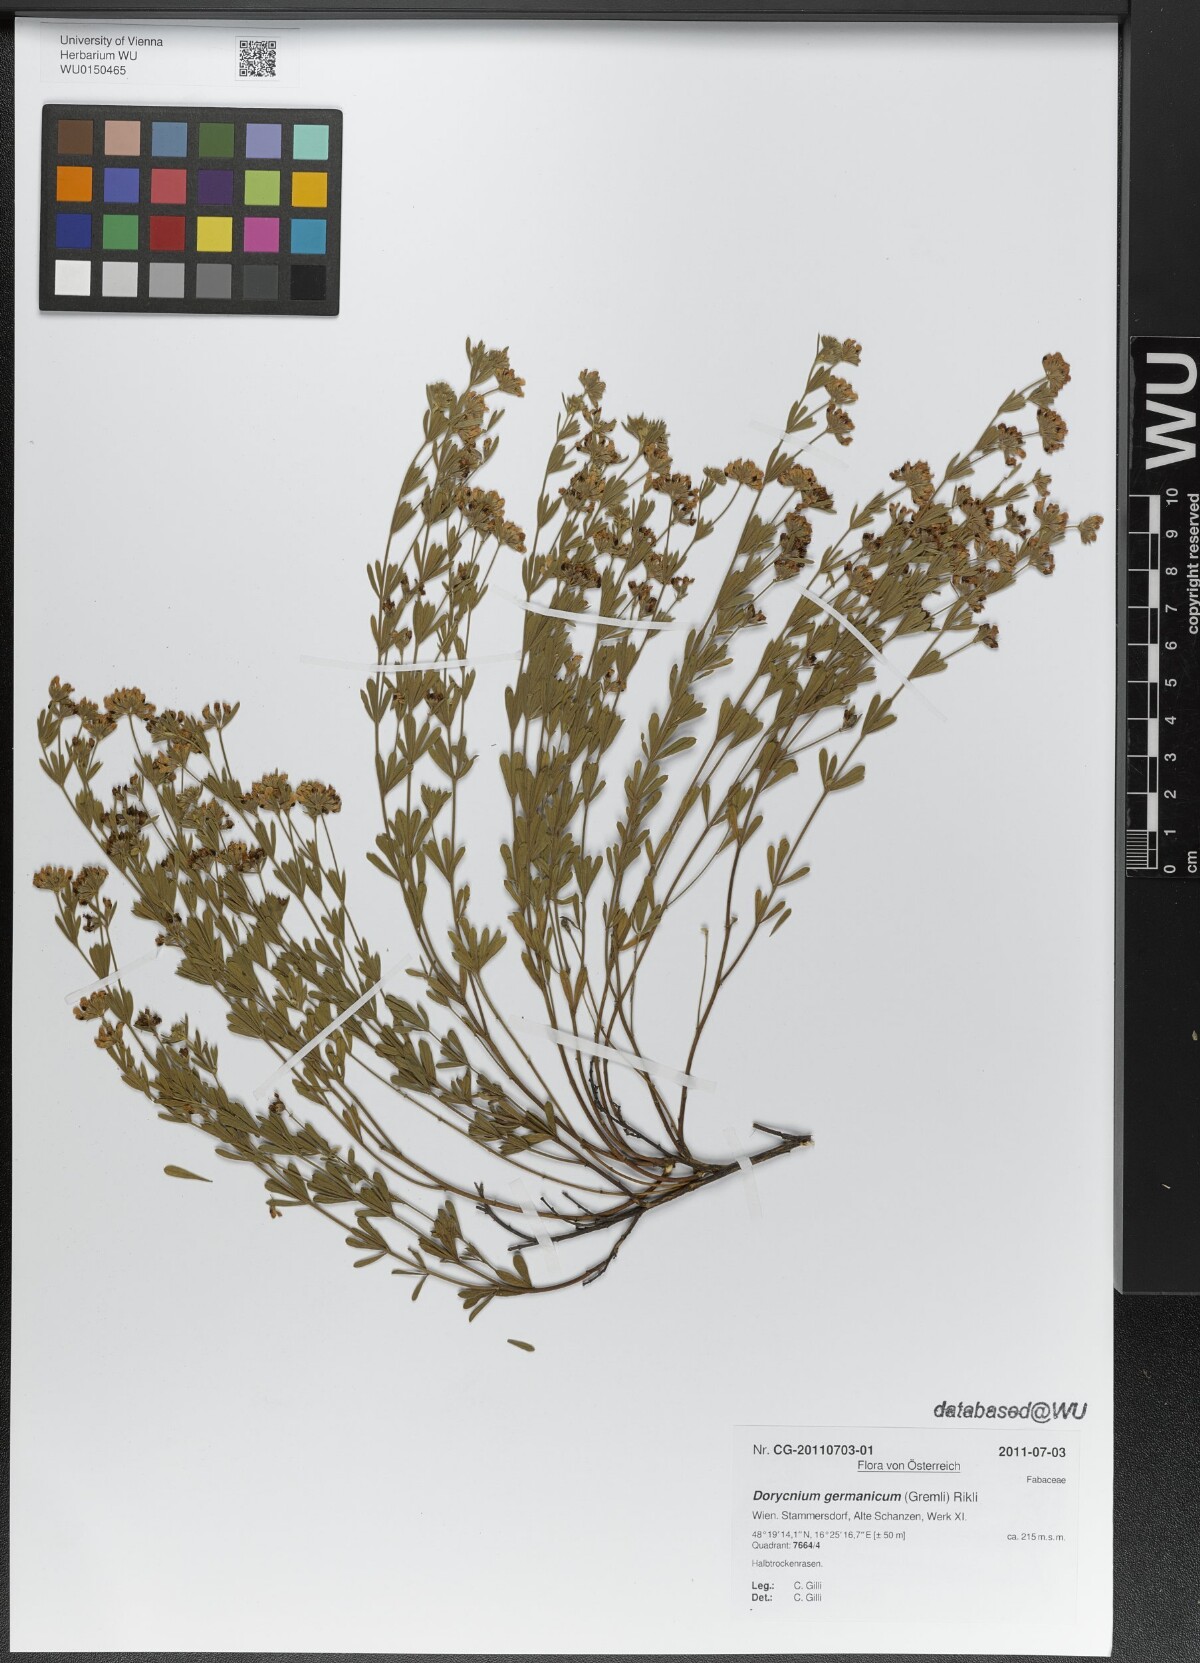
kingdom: Plantae
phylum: Tracheophyta
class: Magnoliopsida
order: Fabales
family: Fabaceae
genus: Lotus
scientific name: Lotus germanicus
